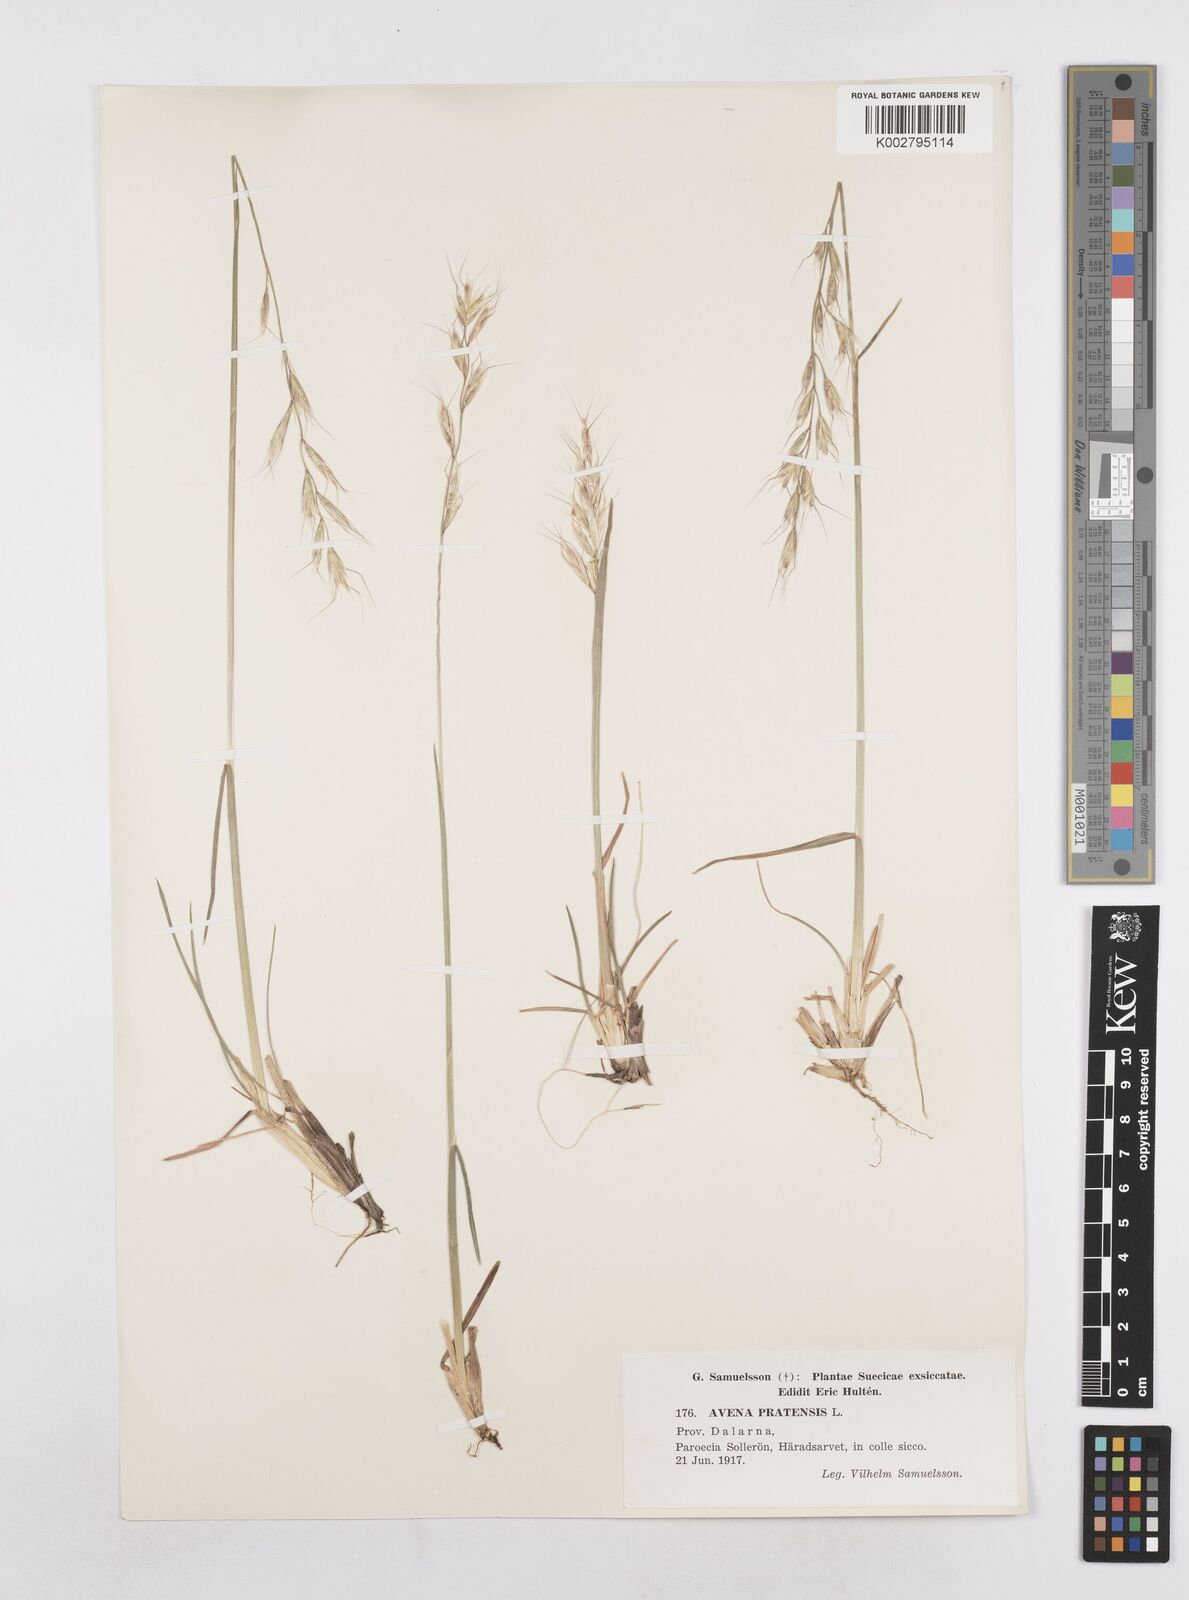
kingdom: Plantae
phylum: Tracheophyta
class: Liliopsida
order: Poales
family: Poaceae
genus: Helictochloa
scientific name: Helictochloa pratensis
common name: Meadow oat grass
